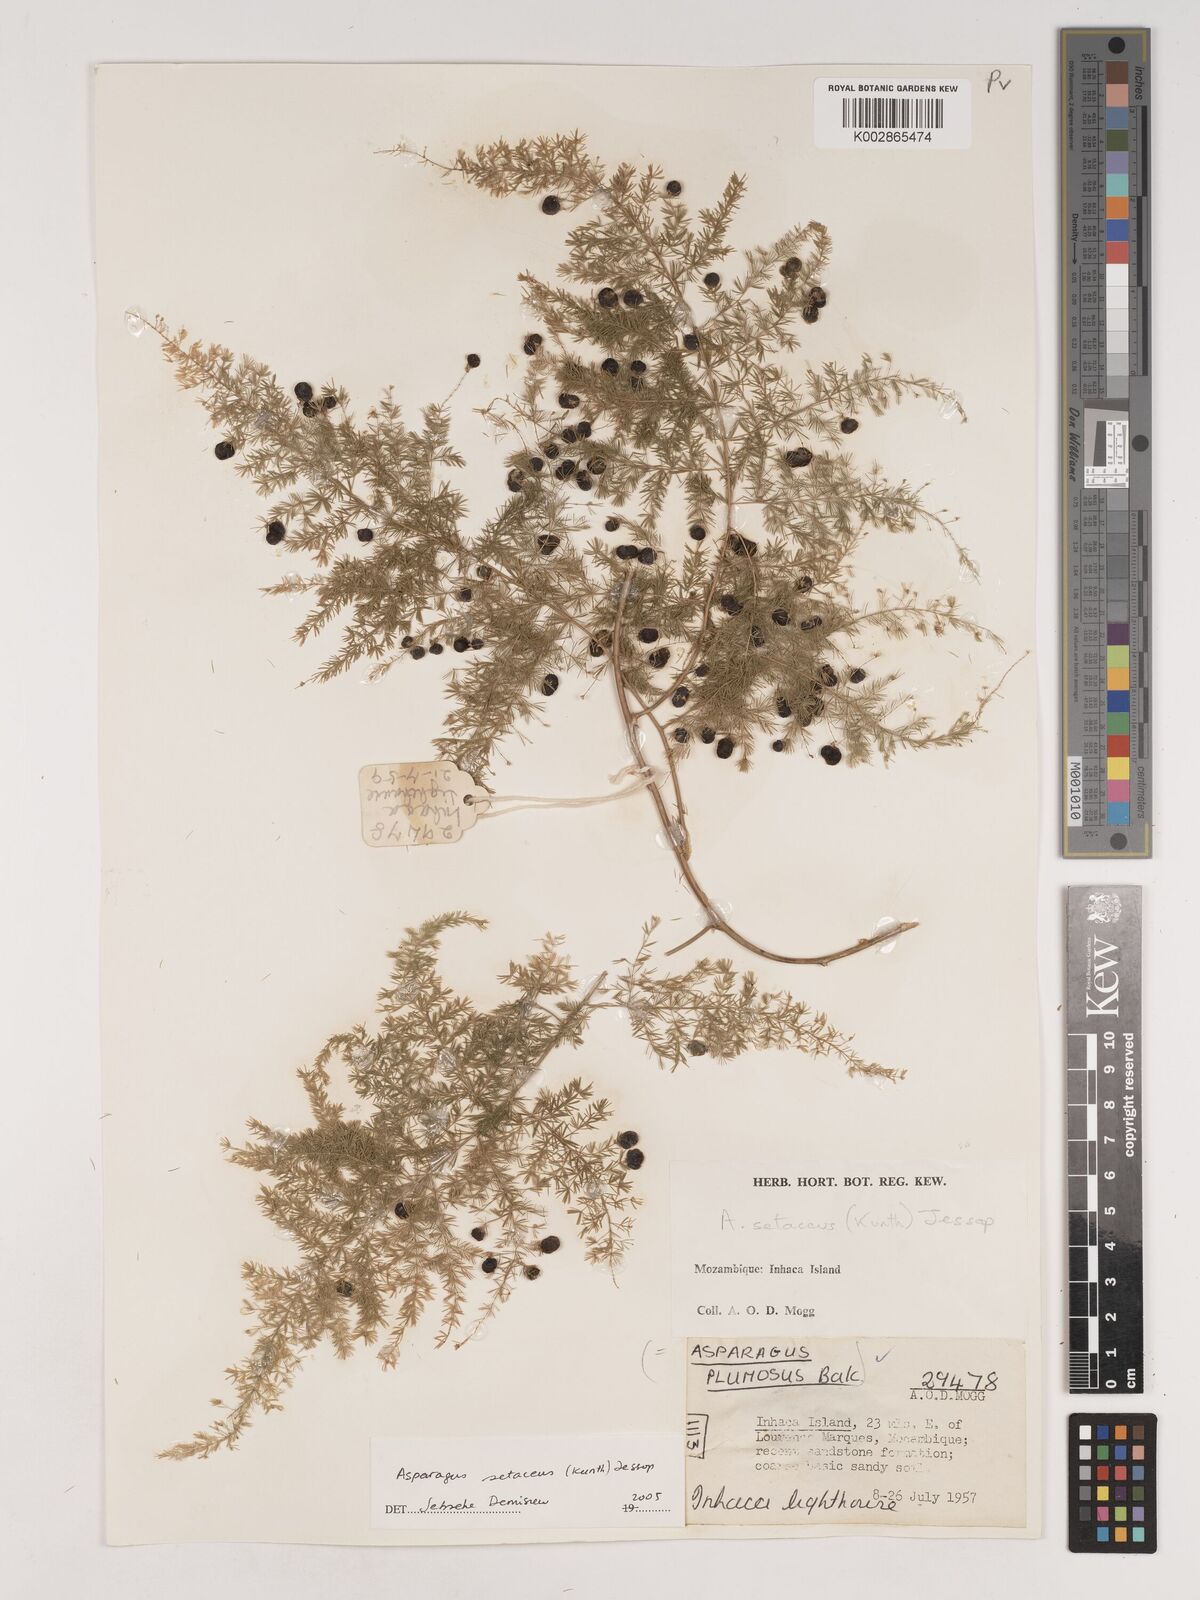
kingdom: Plantae
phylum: Tracheophyta
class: Liliopsida
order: Asparagales
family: Asparagaceae
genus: Asparagus
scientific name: Asparagus setaceus
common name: Common asparagus fern
